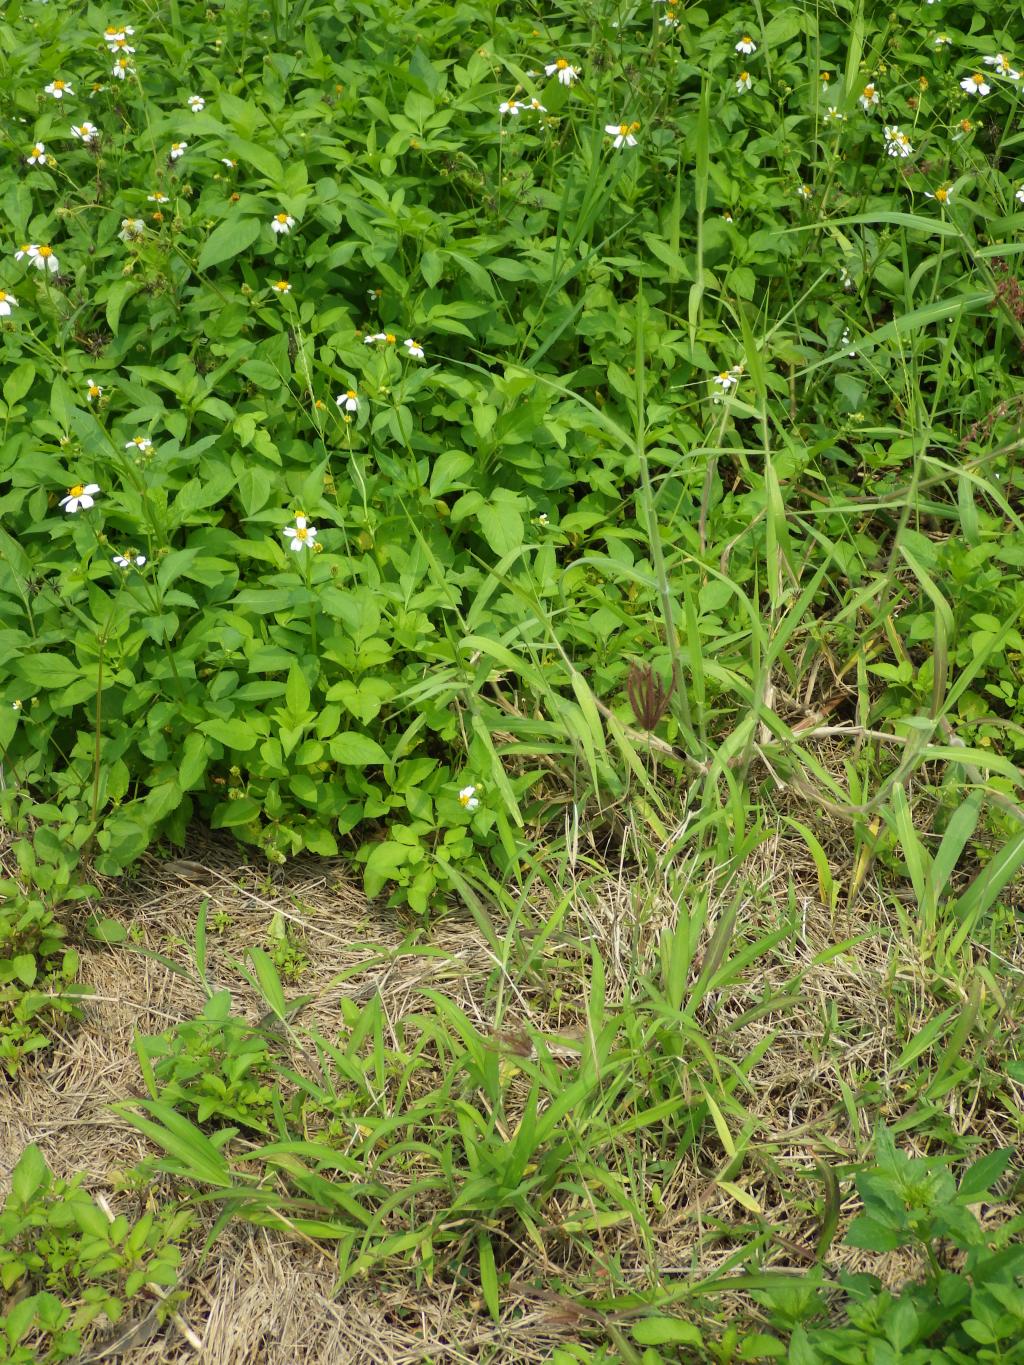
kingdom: Plantae
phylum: Tracheophyta
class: Liliopsida
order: Poales
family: Poaceae
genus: Chloris
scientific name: Chloris barbata
